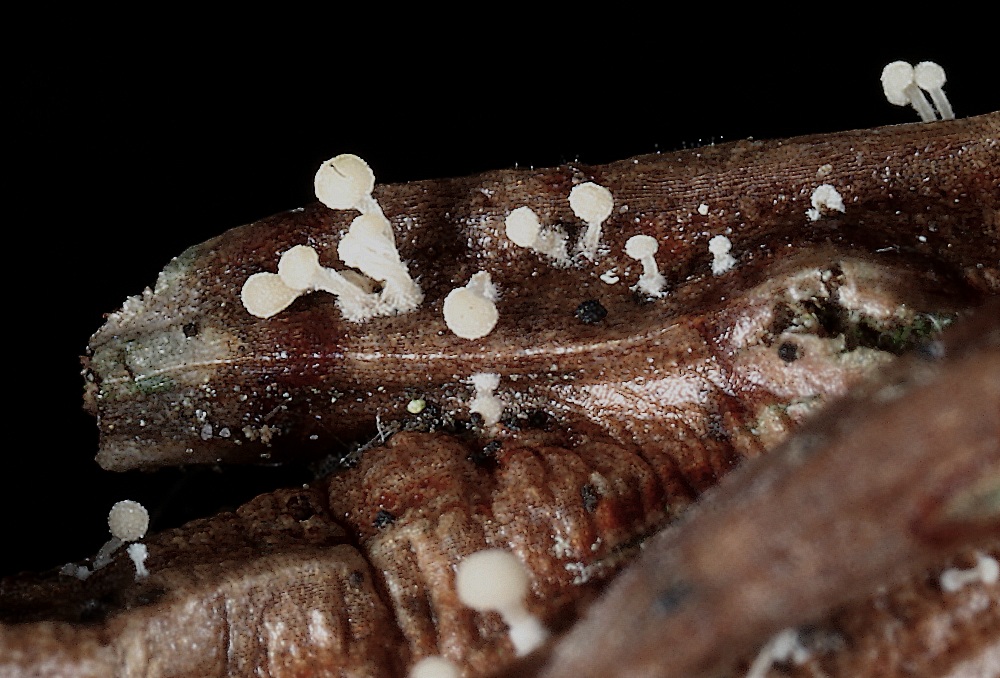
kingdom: Fungi
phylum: Basidiomycota
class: Agaricomycetes
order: Agaricales
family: Physalacriaceae
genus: Physalacria
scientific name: Physalacria cryptomeriae
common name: japangran-boldkølle
